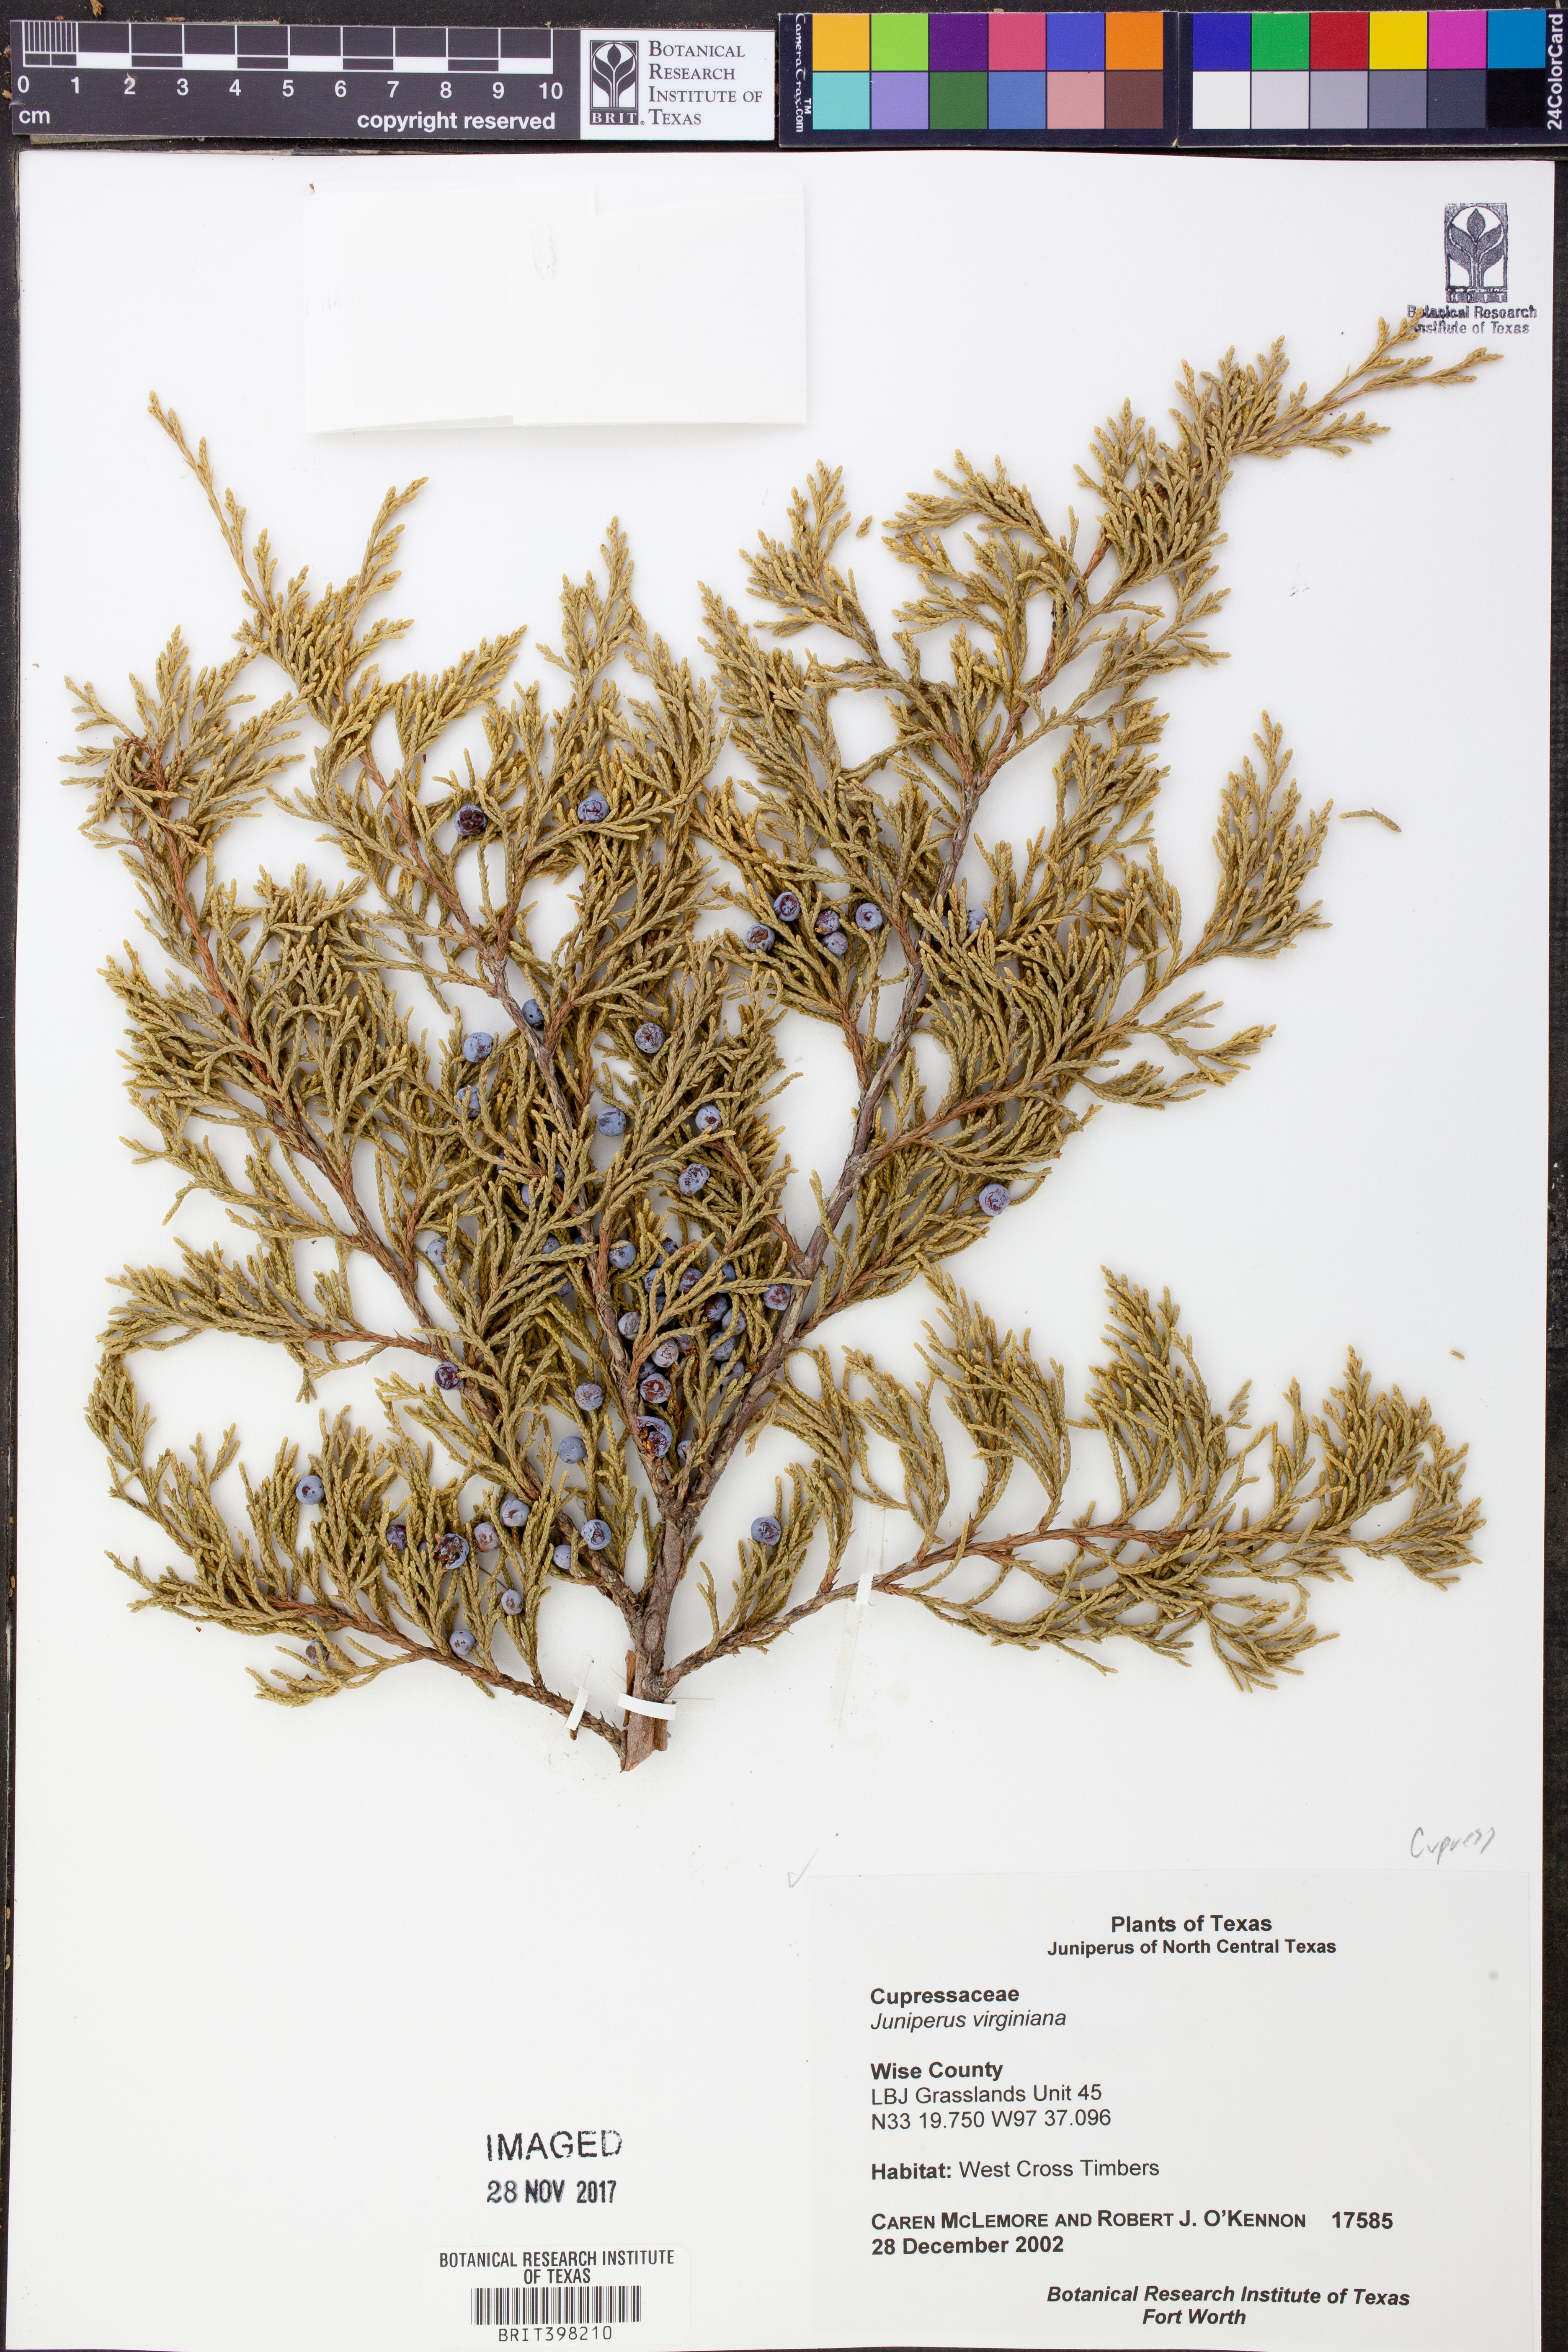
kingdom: Plantae
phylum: Tracheophyta
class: Pinopsida
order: Pinales
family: Cupressaceae
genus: Juniperus
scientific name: Juniperus virginiana
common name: Red juniper
